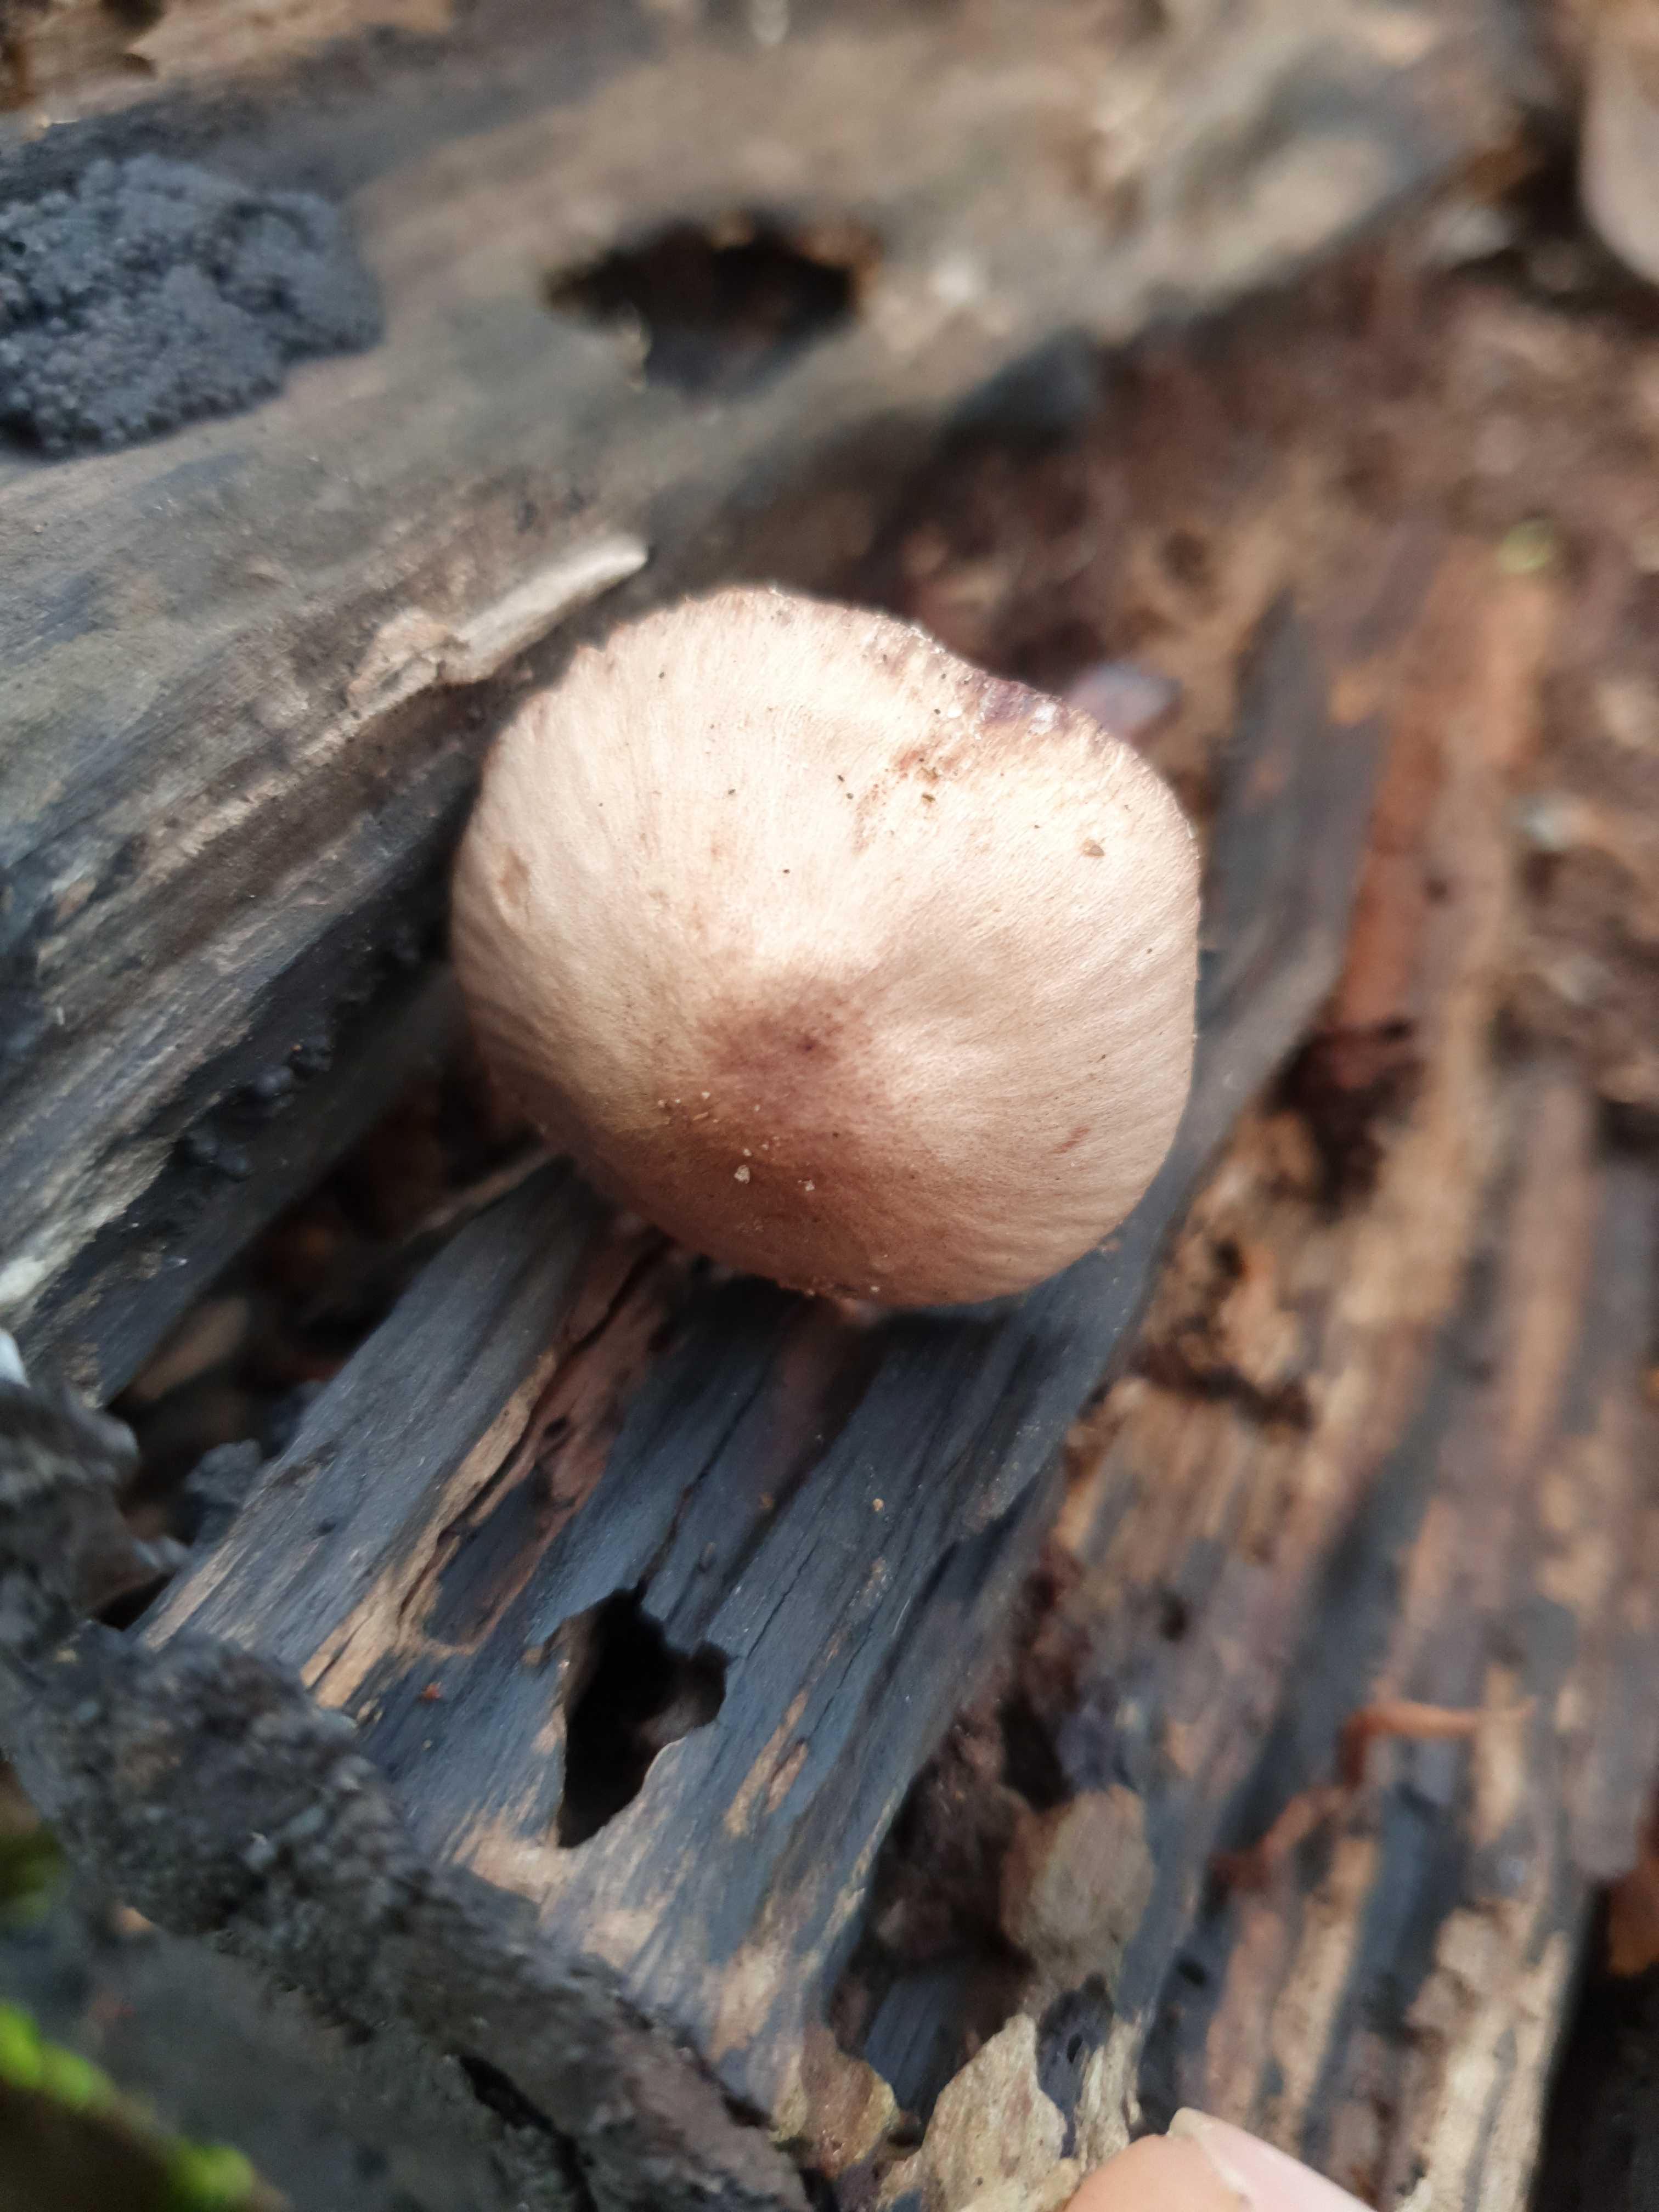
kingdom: Fungi
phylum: Basidiomycota
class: Agaricomycetes
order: Agaricales
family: Mycenaceae
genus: Mycena
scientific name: Mycena haematopus
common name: blødende huesvamp
